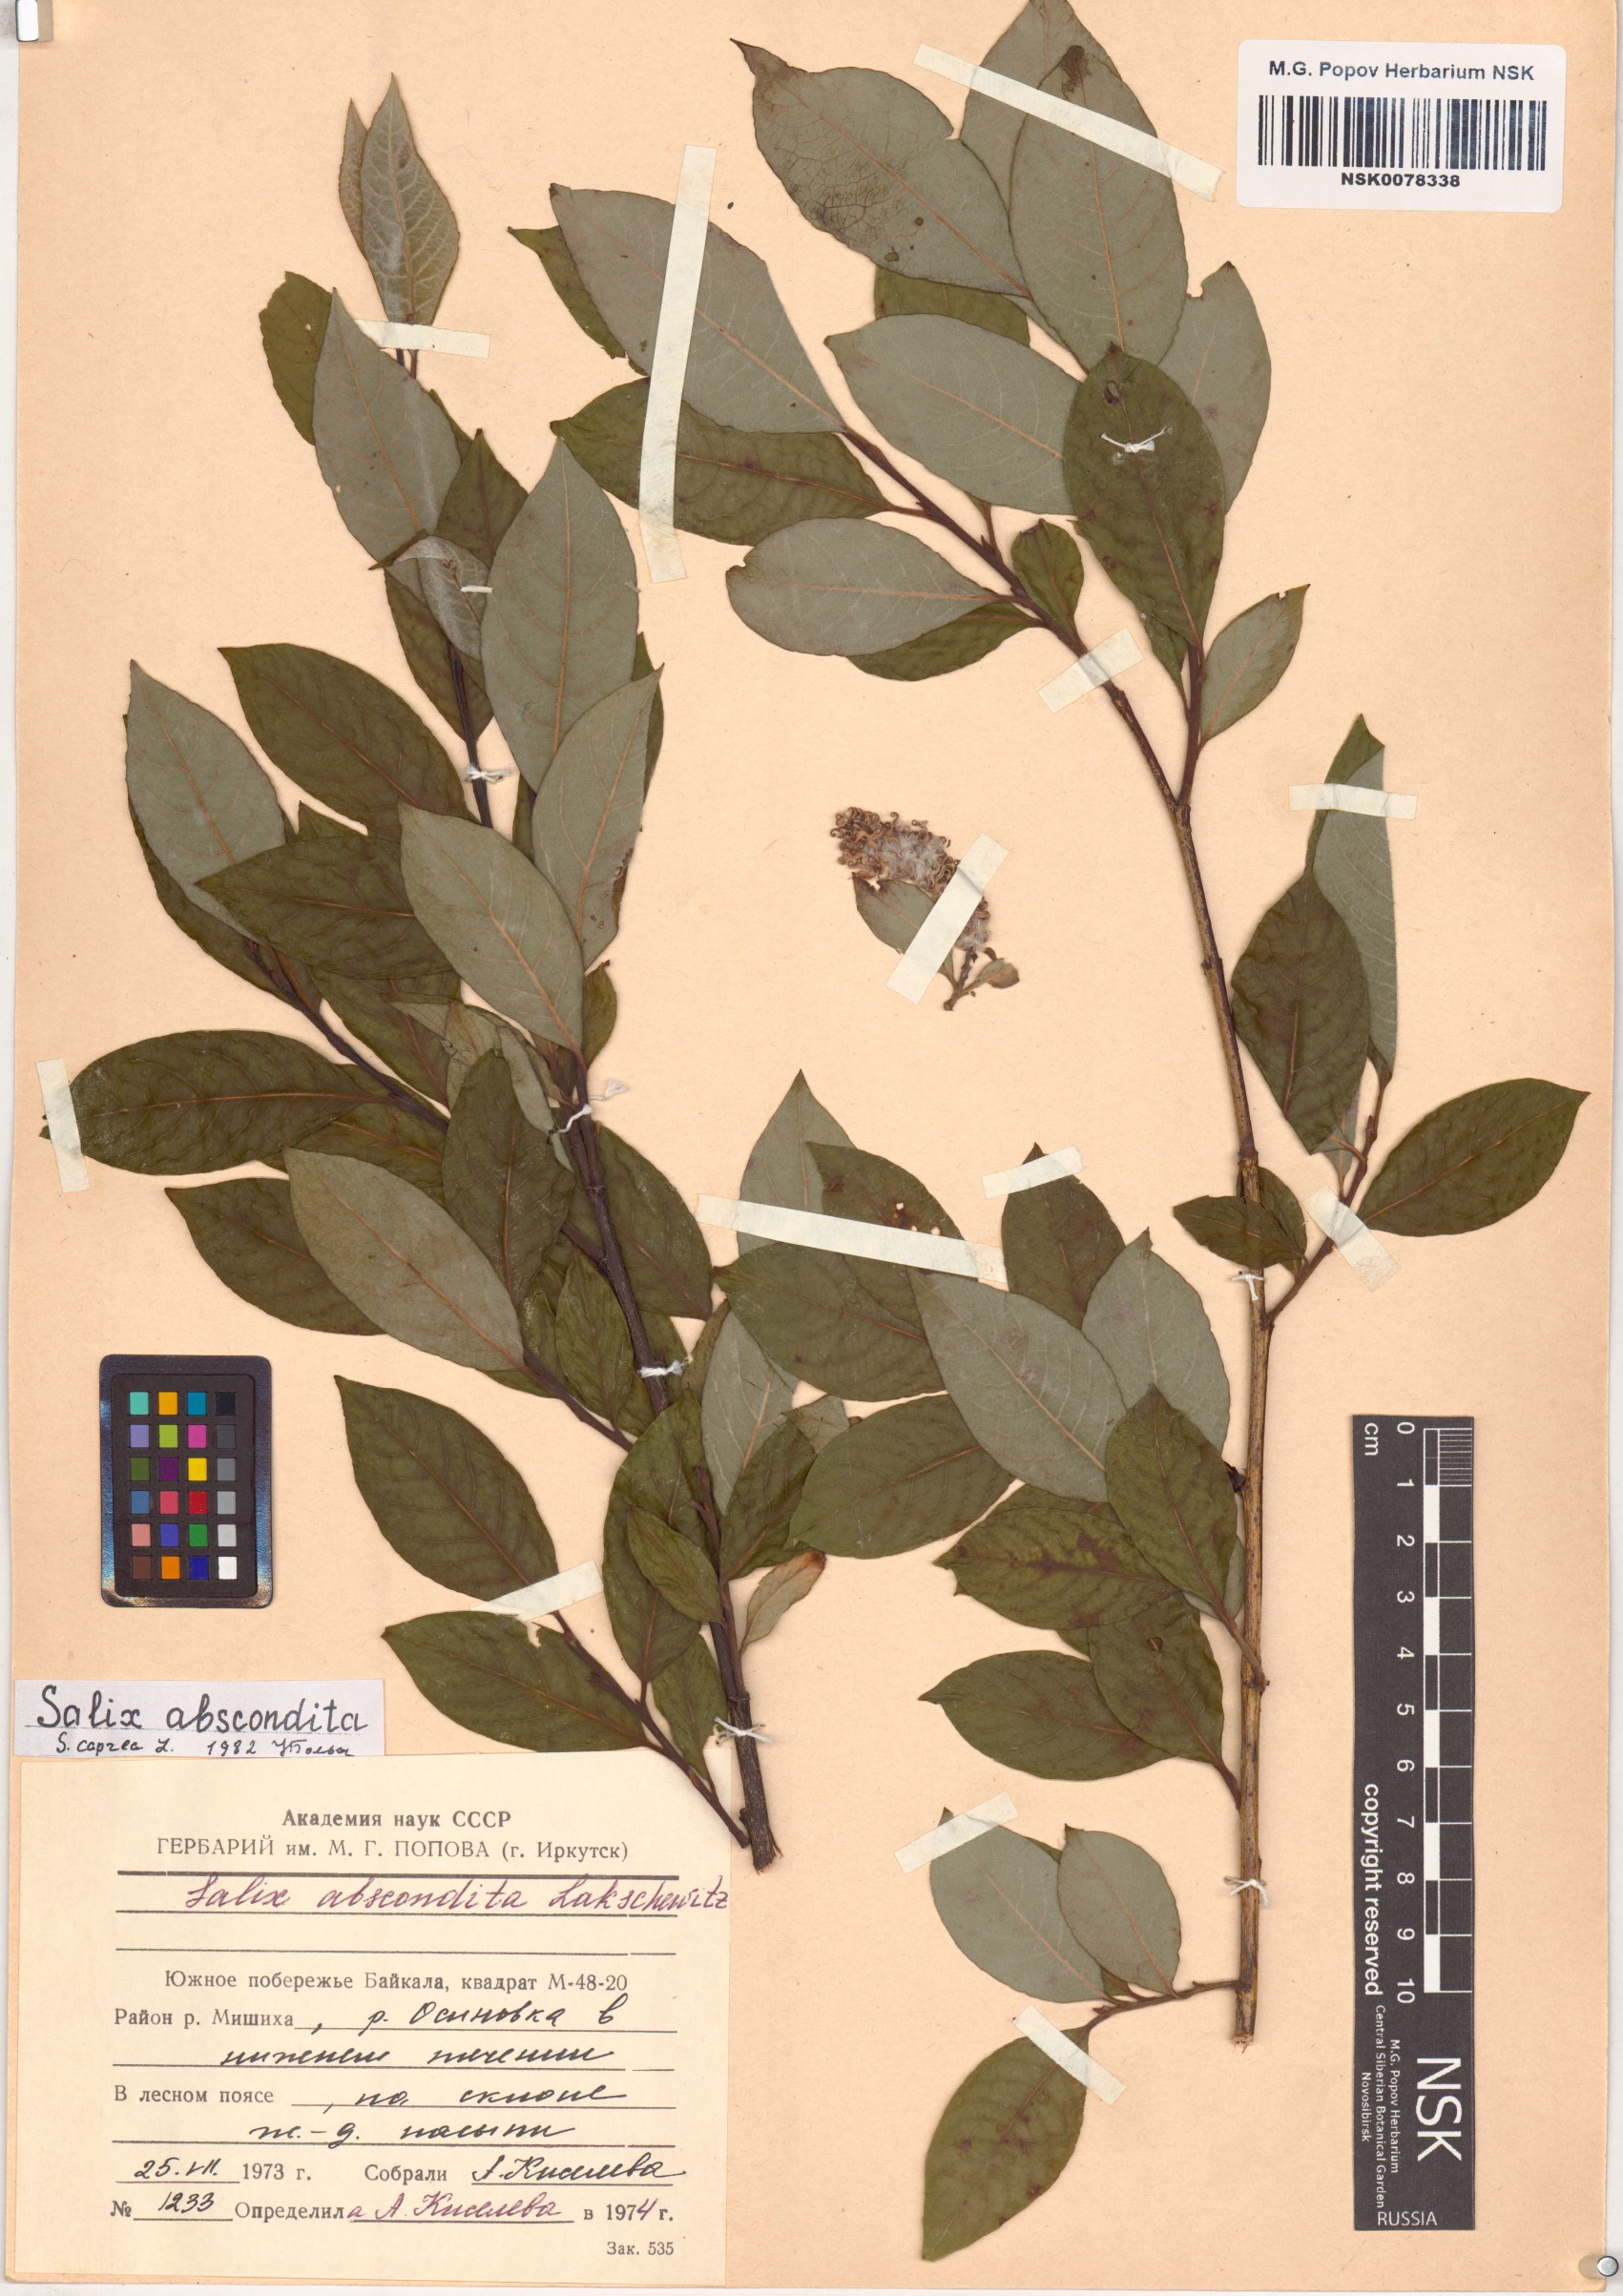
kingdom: Plantae
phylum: Tracheophyta
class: Magnoliopsida
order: Malpighiales
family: Salicaceae
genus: Salix
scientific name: Salix caprea
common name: Goat willow
